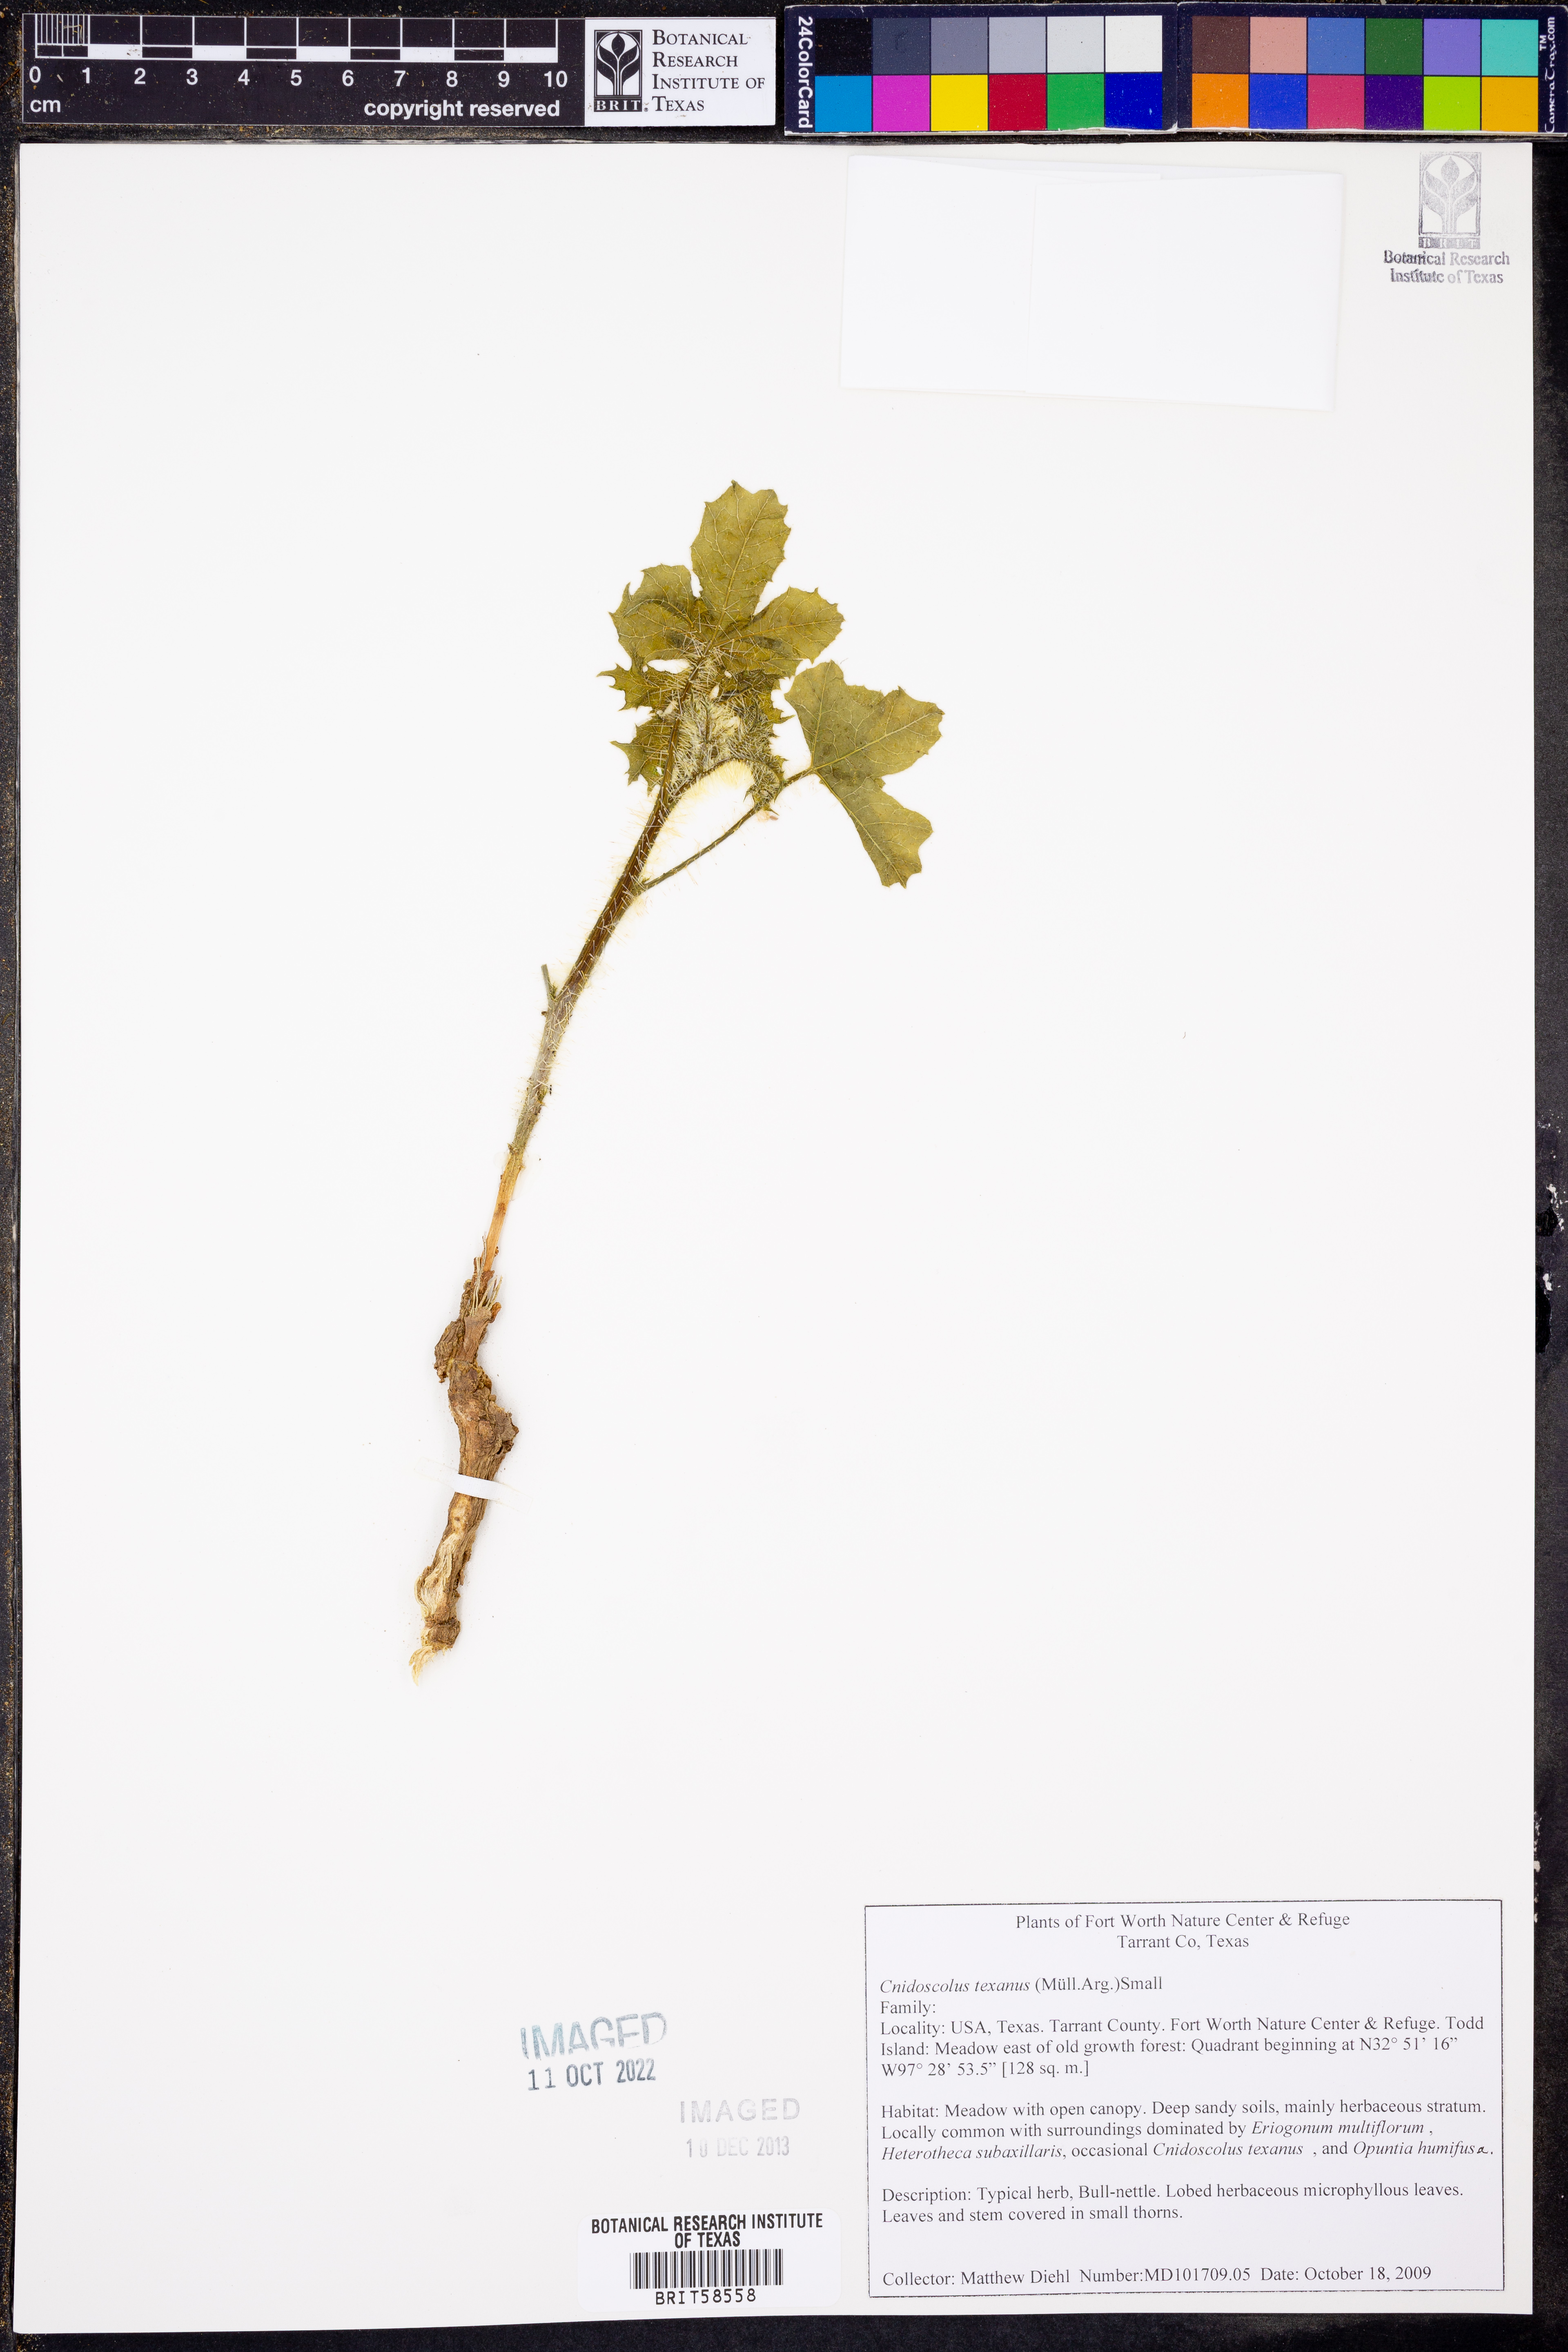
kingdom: Plantae
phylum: Tracheophyta
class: Magnoliopsida
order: Malpighiales
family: Euphorbiaceae
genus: Cnidoscolus
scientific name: Cnidoscolus texanus
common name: Texas bull-nettle
